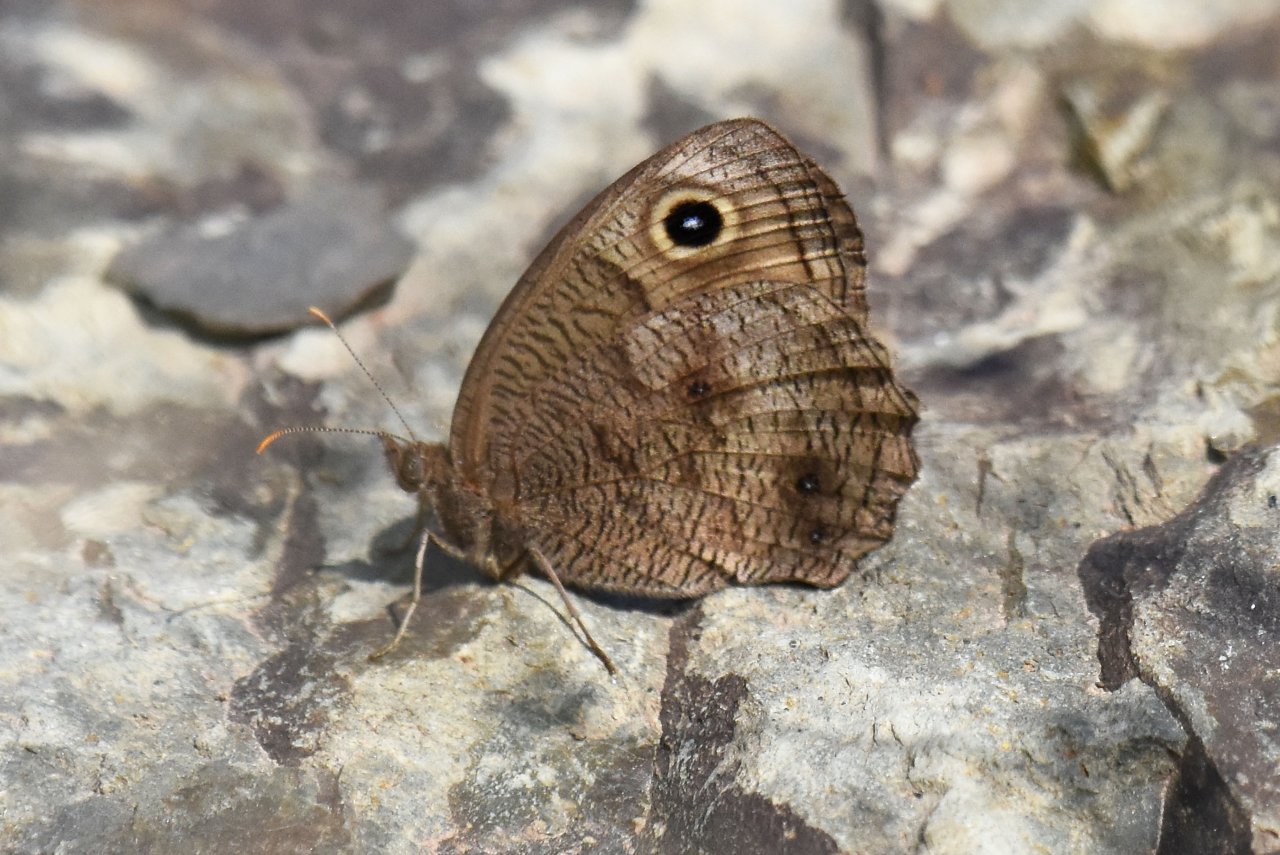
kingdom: Animalia
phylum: Arthropoda
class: Insecta
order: Lepidoptera
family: Nymphalidae
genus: Cercyonis
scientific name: Cercyonis pegala
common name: Common Wood-Nymph
